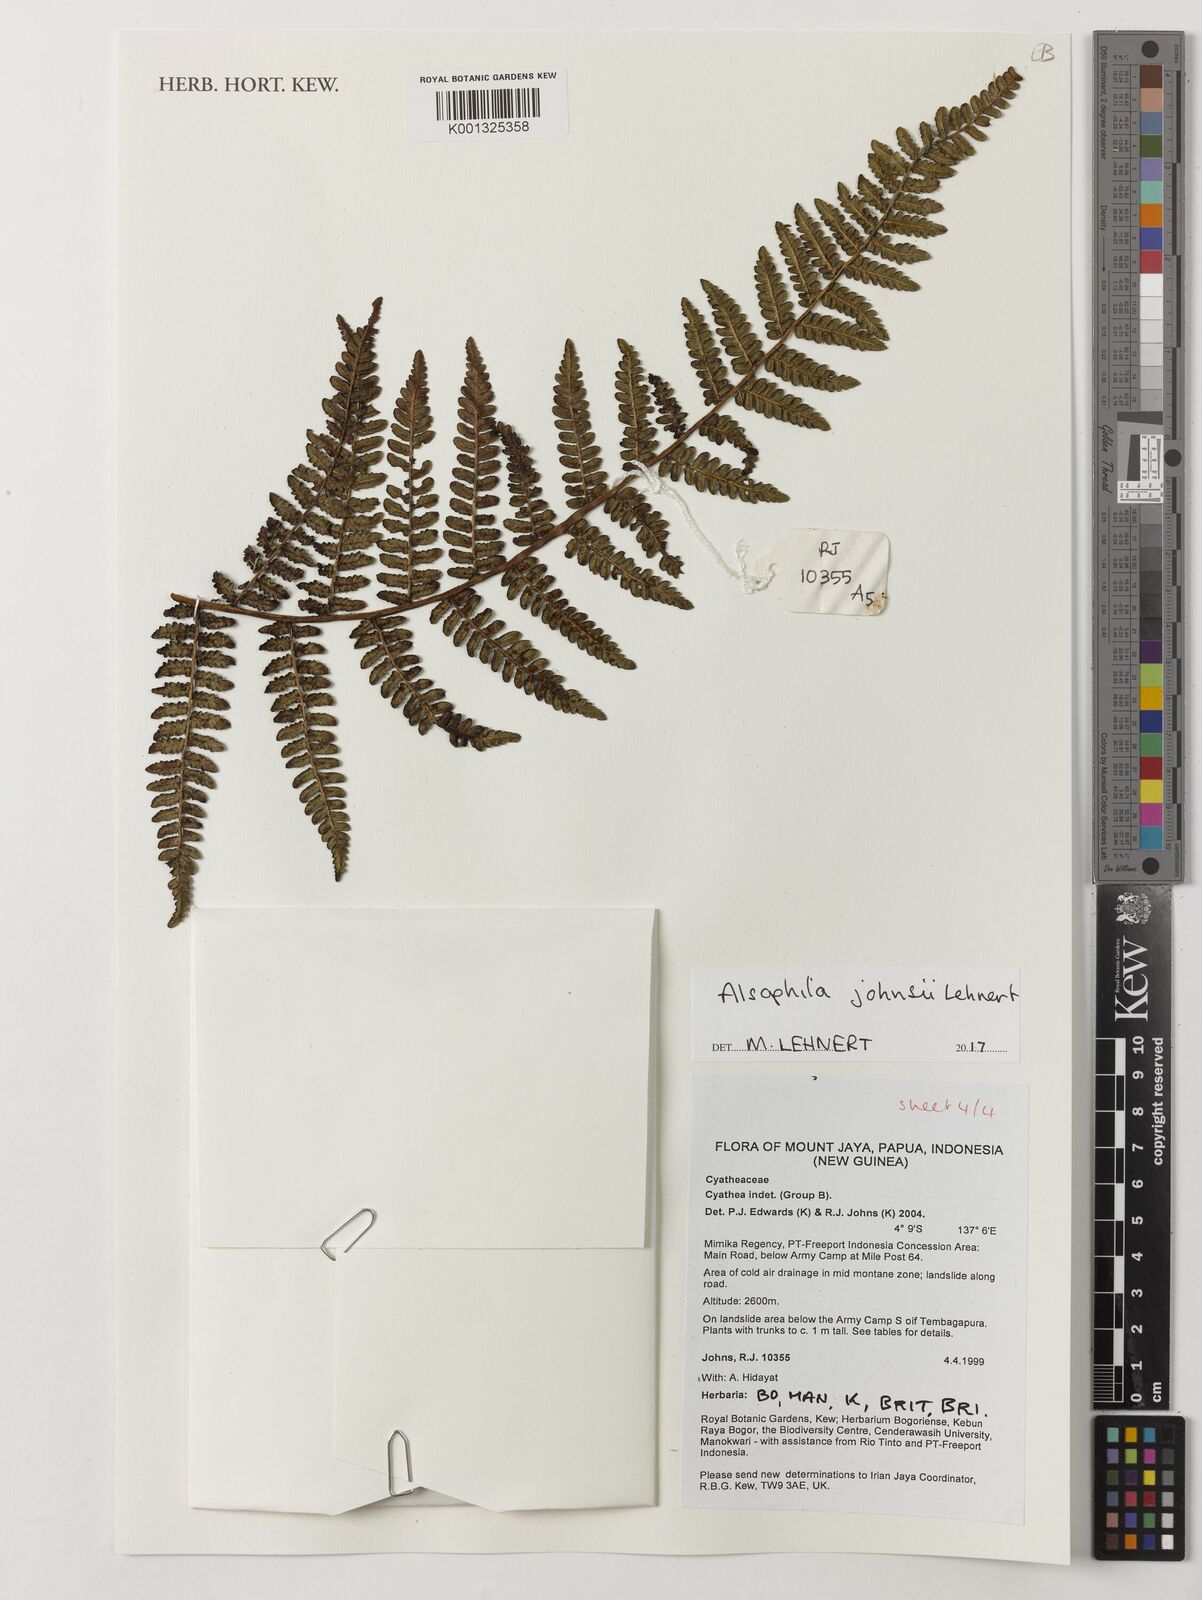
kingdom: Plantae
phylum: Tracheophyta
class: Polypodiopsida
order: Cyatheales
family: Cyatheaceae
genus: Alsophila
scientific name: Alsophila johnsii
